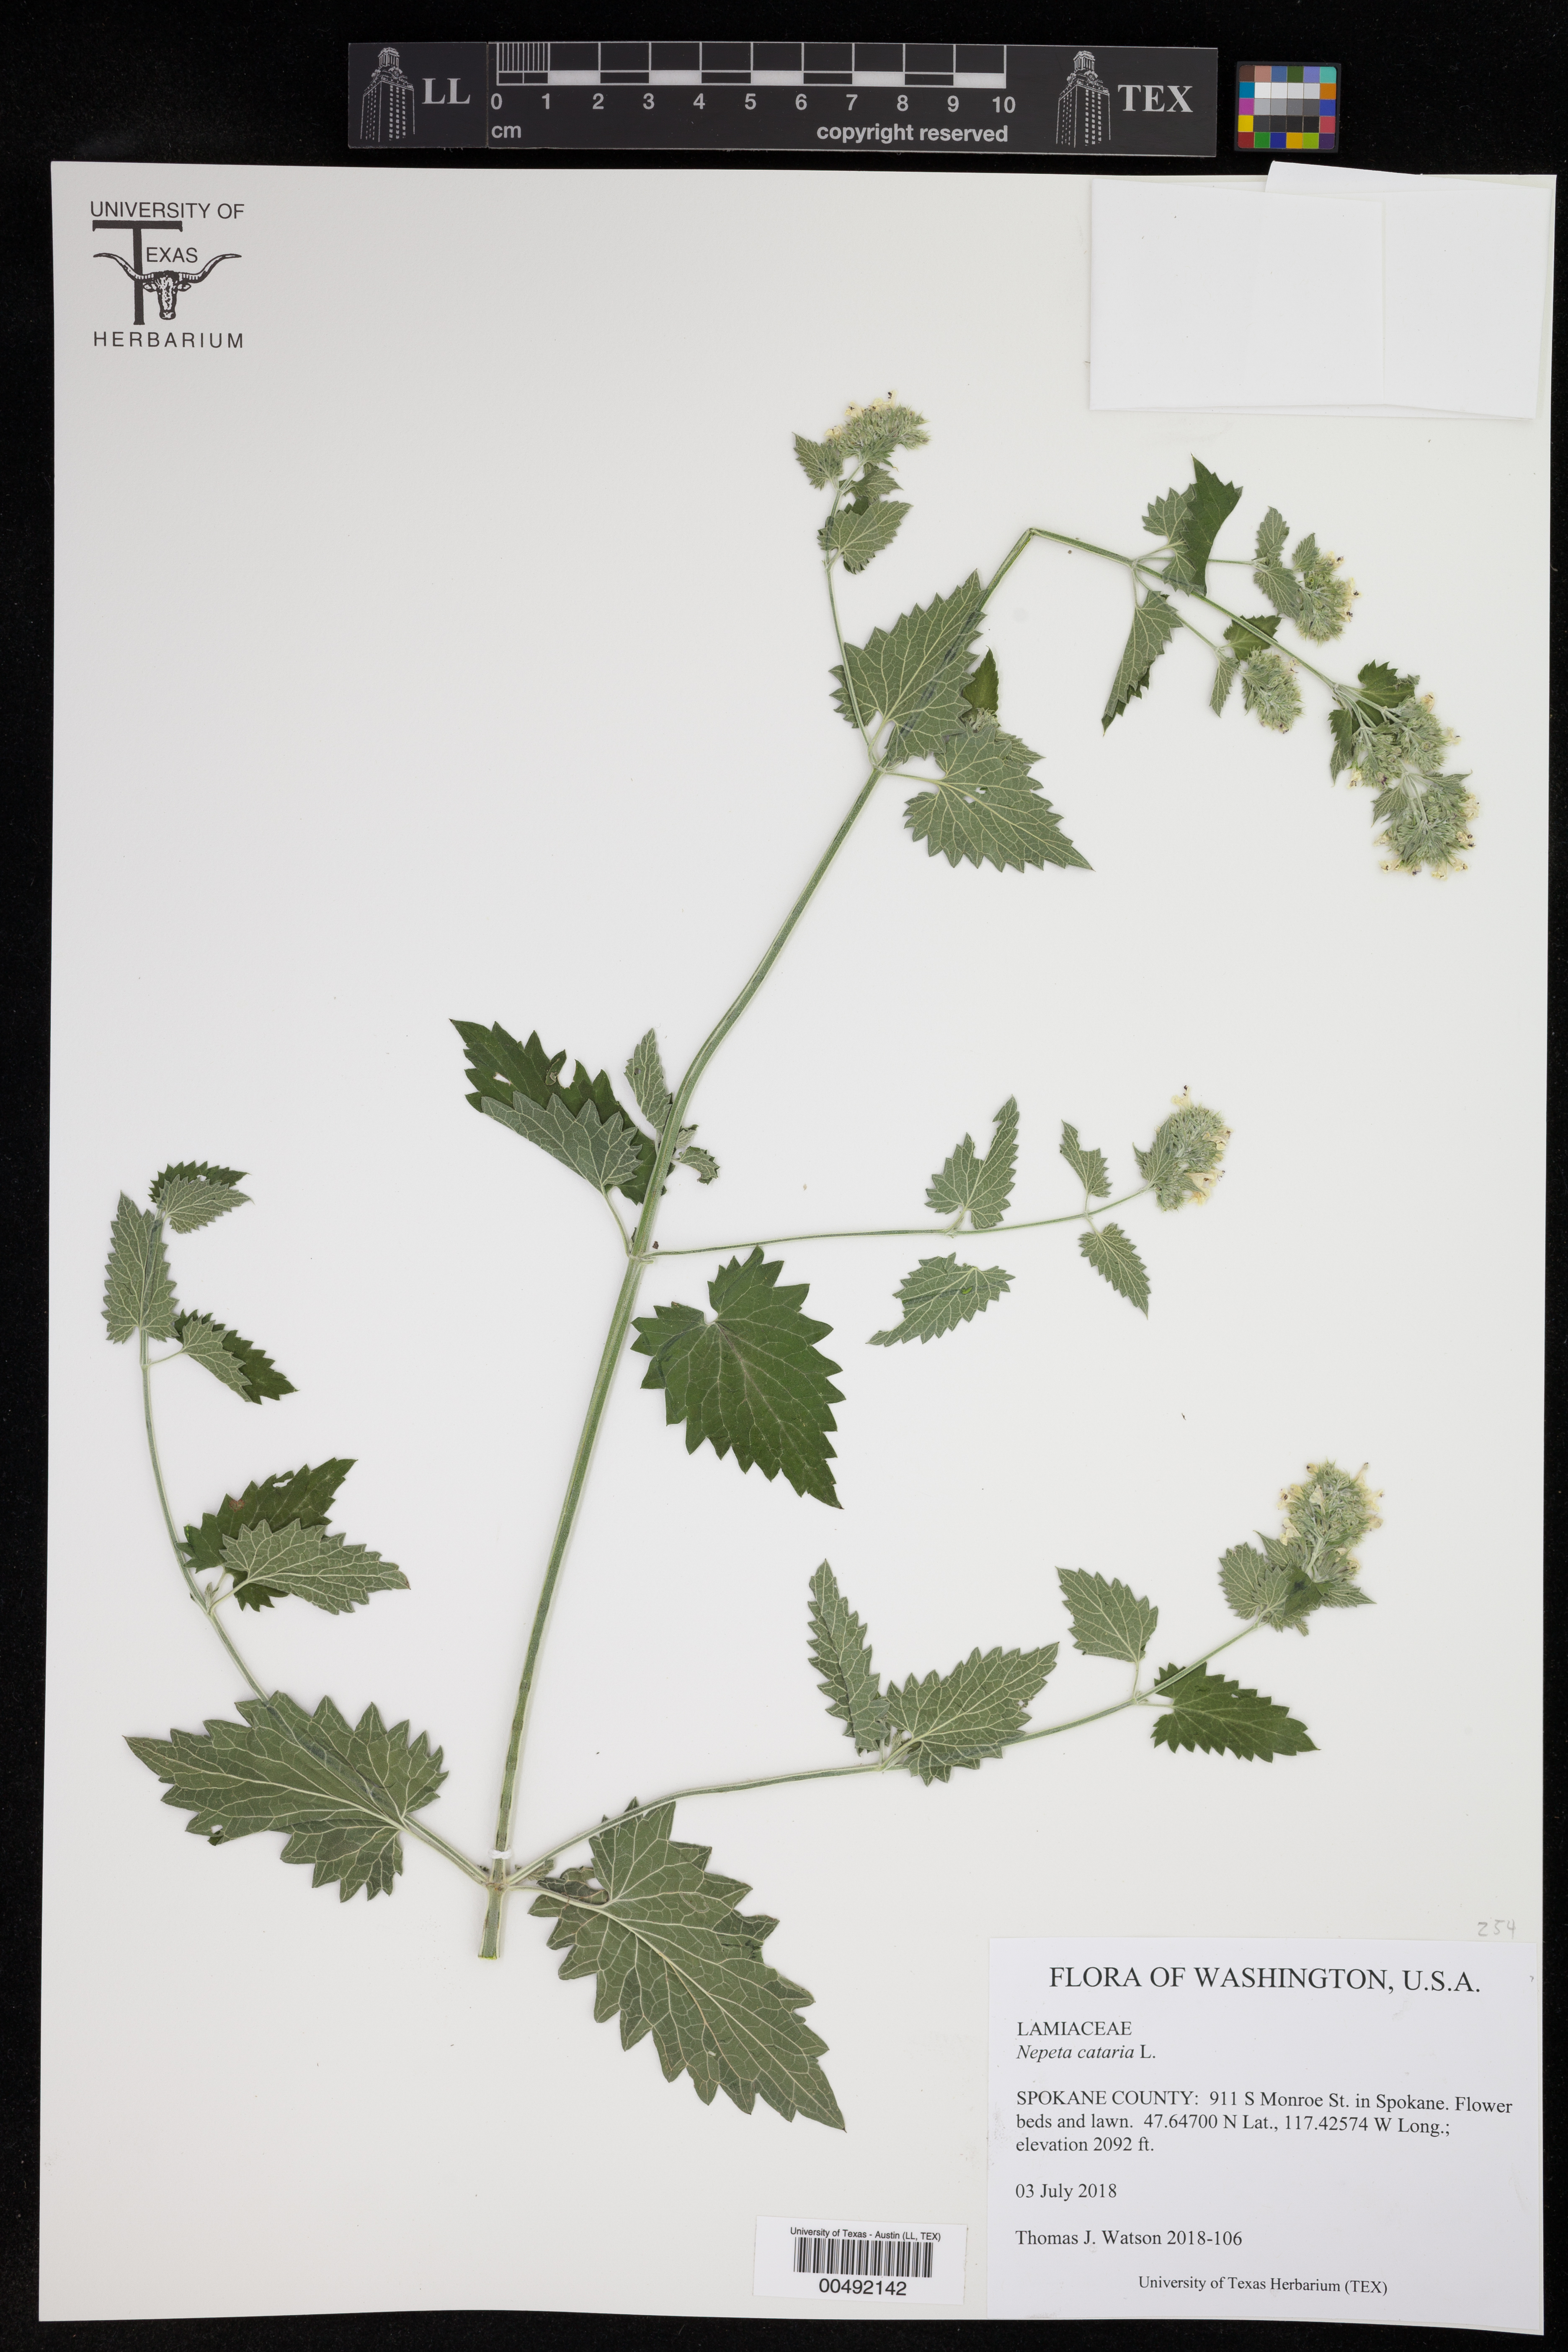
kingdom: Plantae
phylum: Tracheophyta
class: Magnoliopsida
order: Lamiales
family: Lamiaceae
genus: Nepeta
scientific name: Nepeta cataria
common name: Catnip
